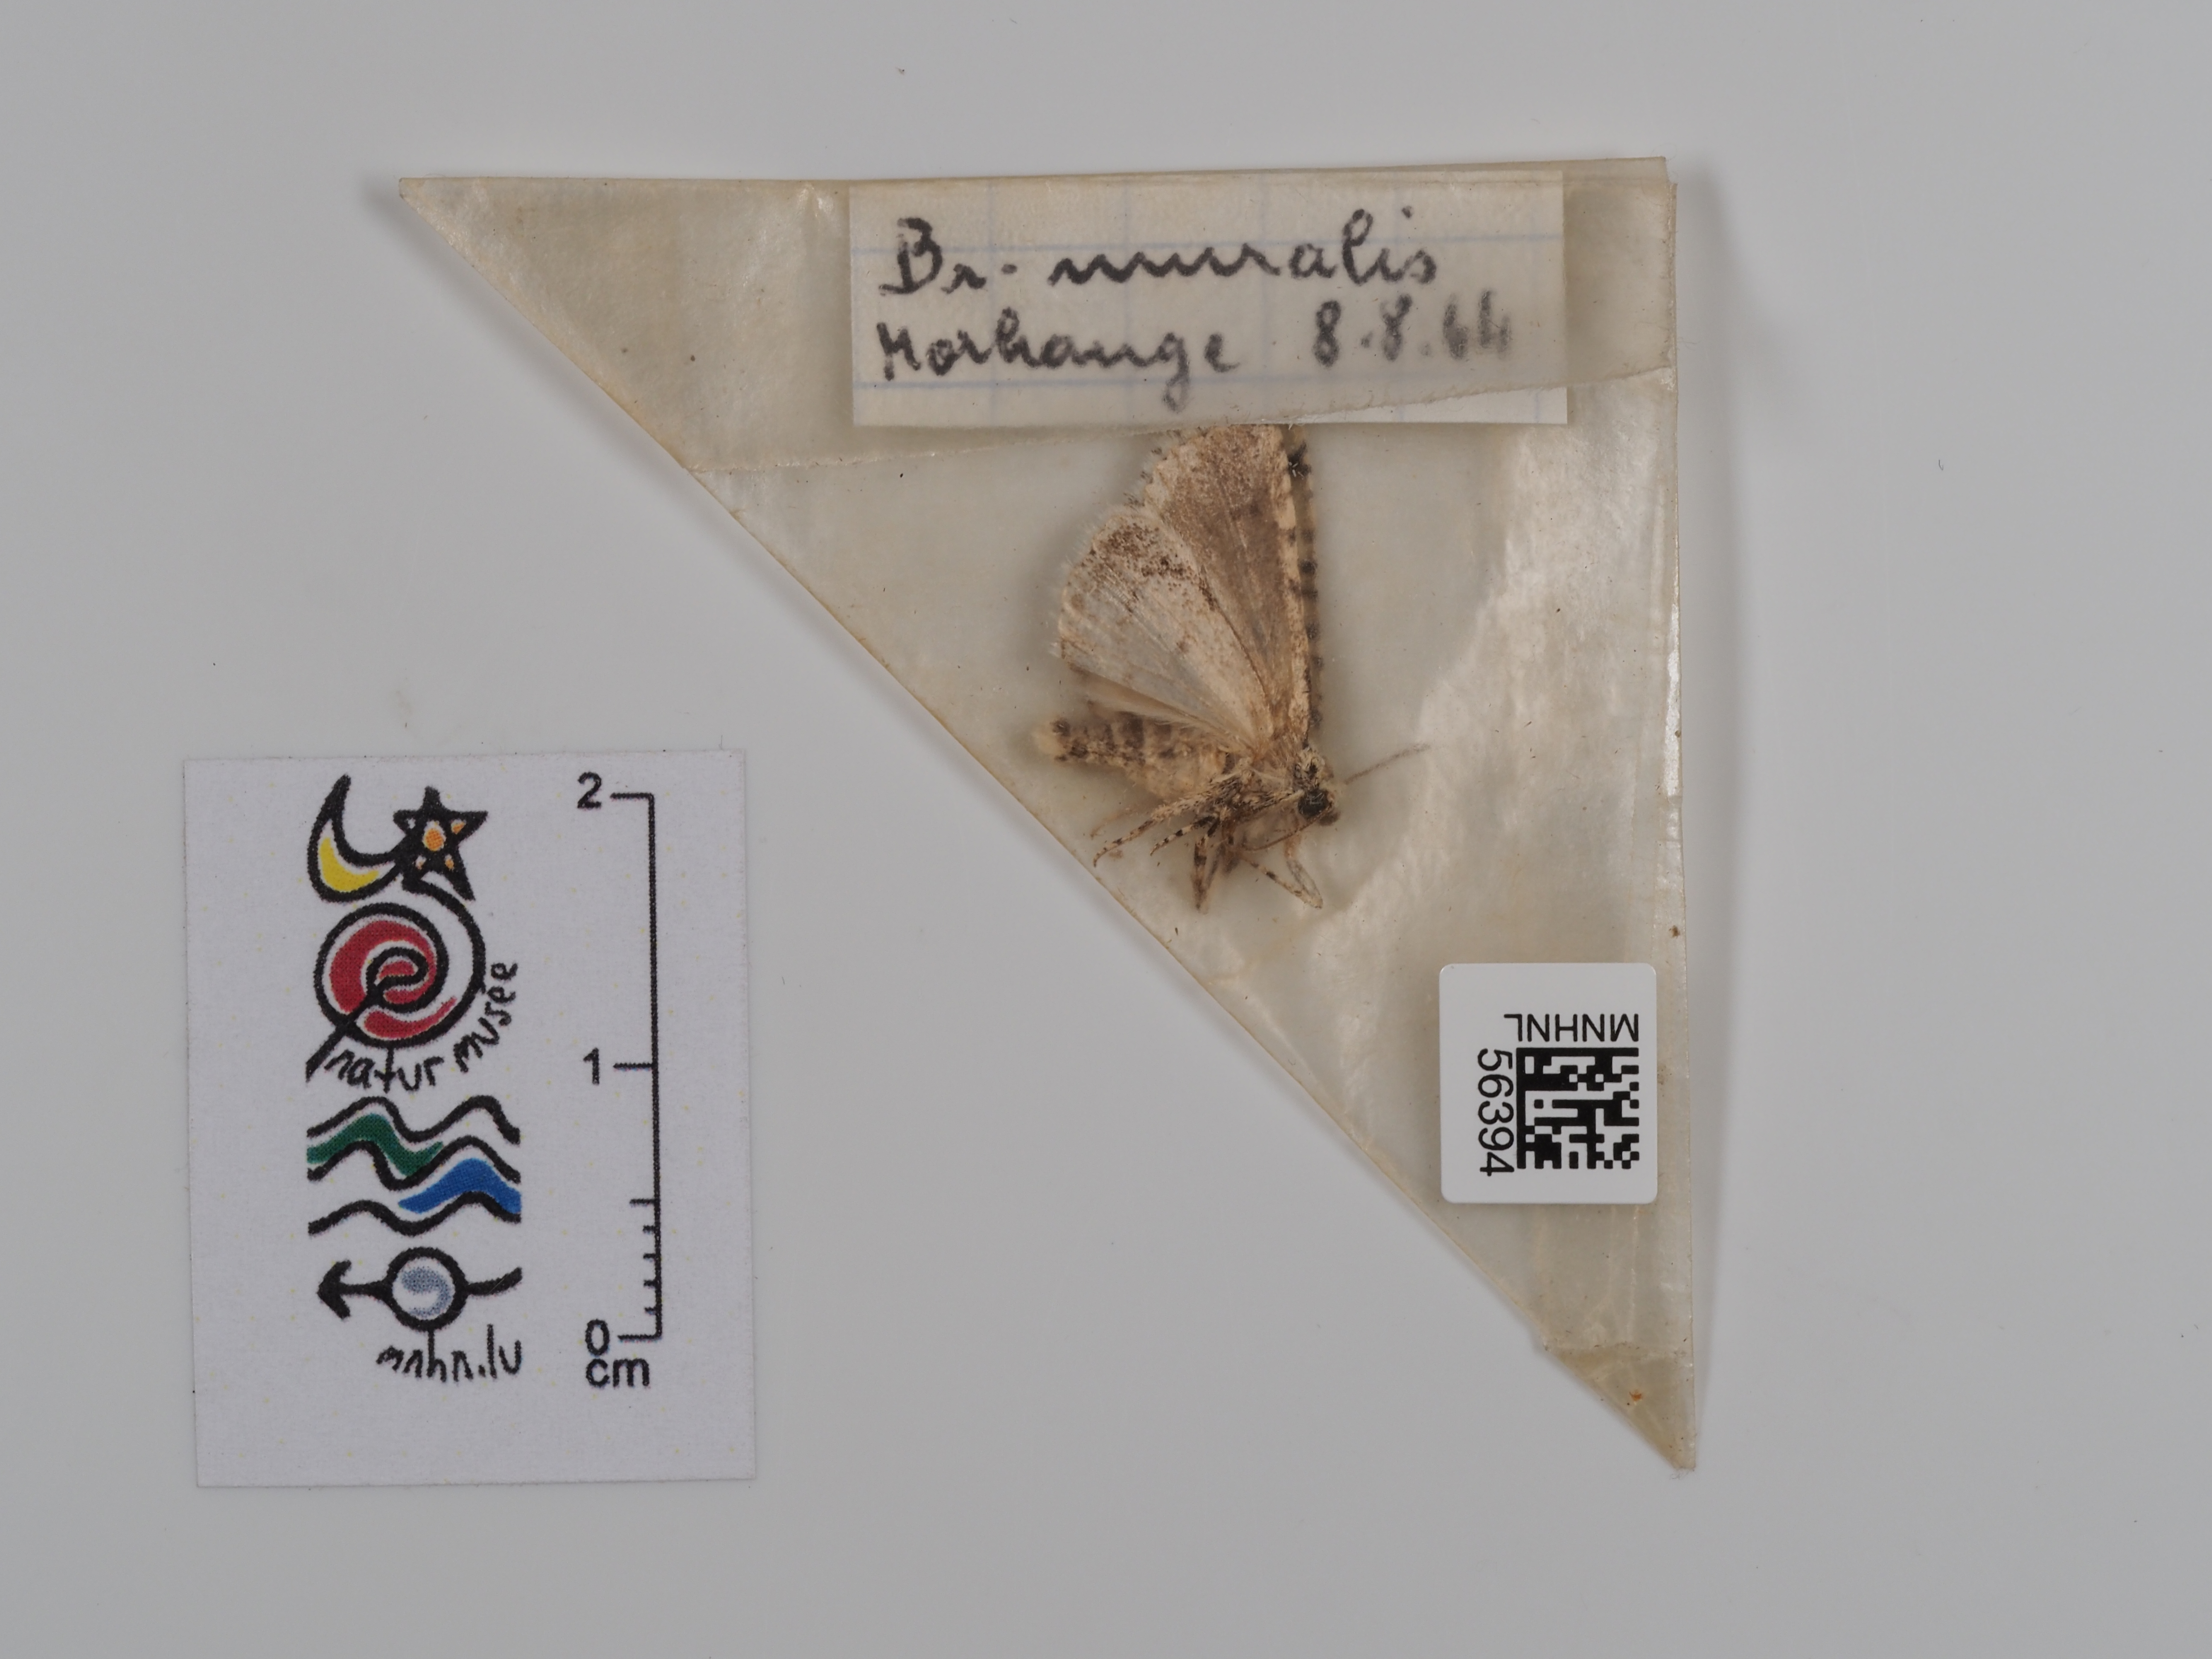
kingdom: Animalia
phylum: Arthropoda
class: Insecta
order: Lepidoptera
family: Noctuidae
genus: Nyctobrya
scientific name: Nyctobrya muralis
